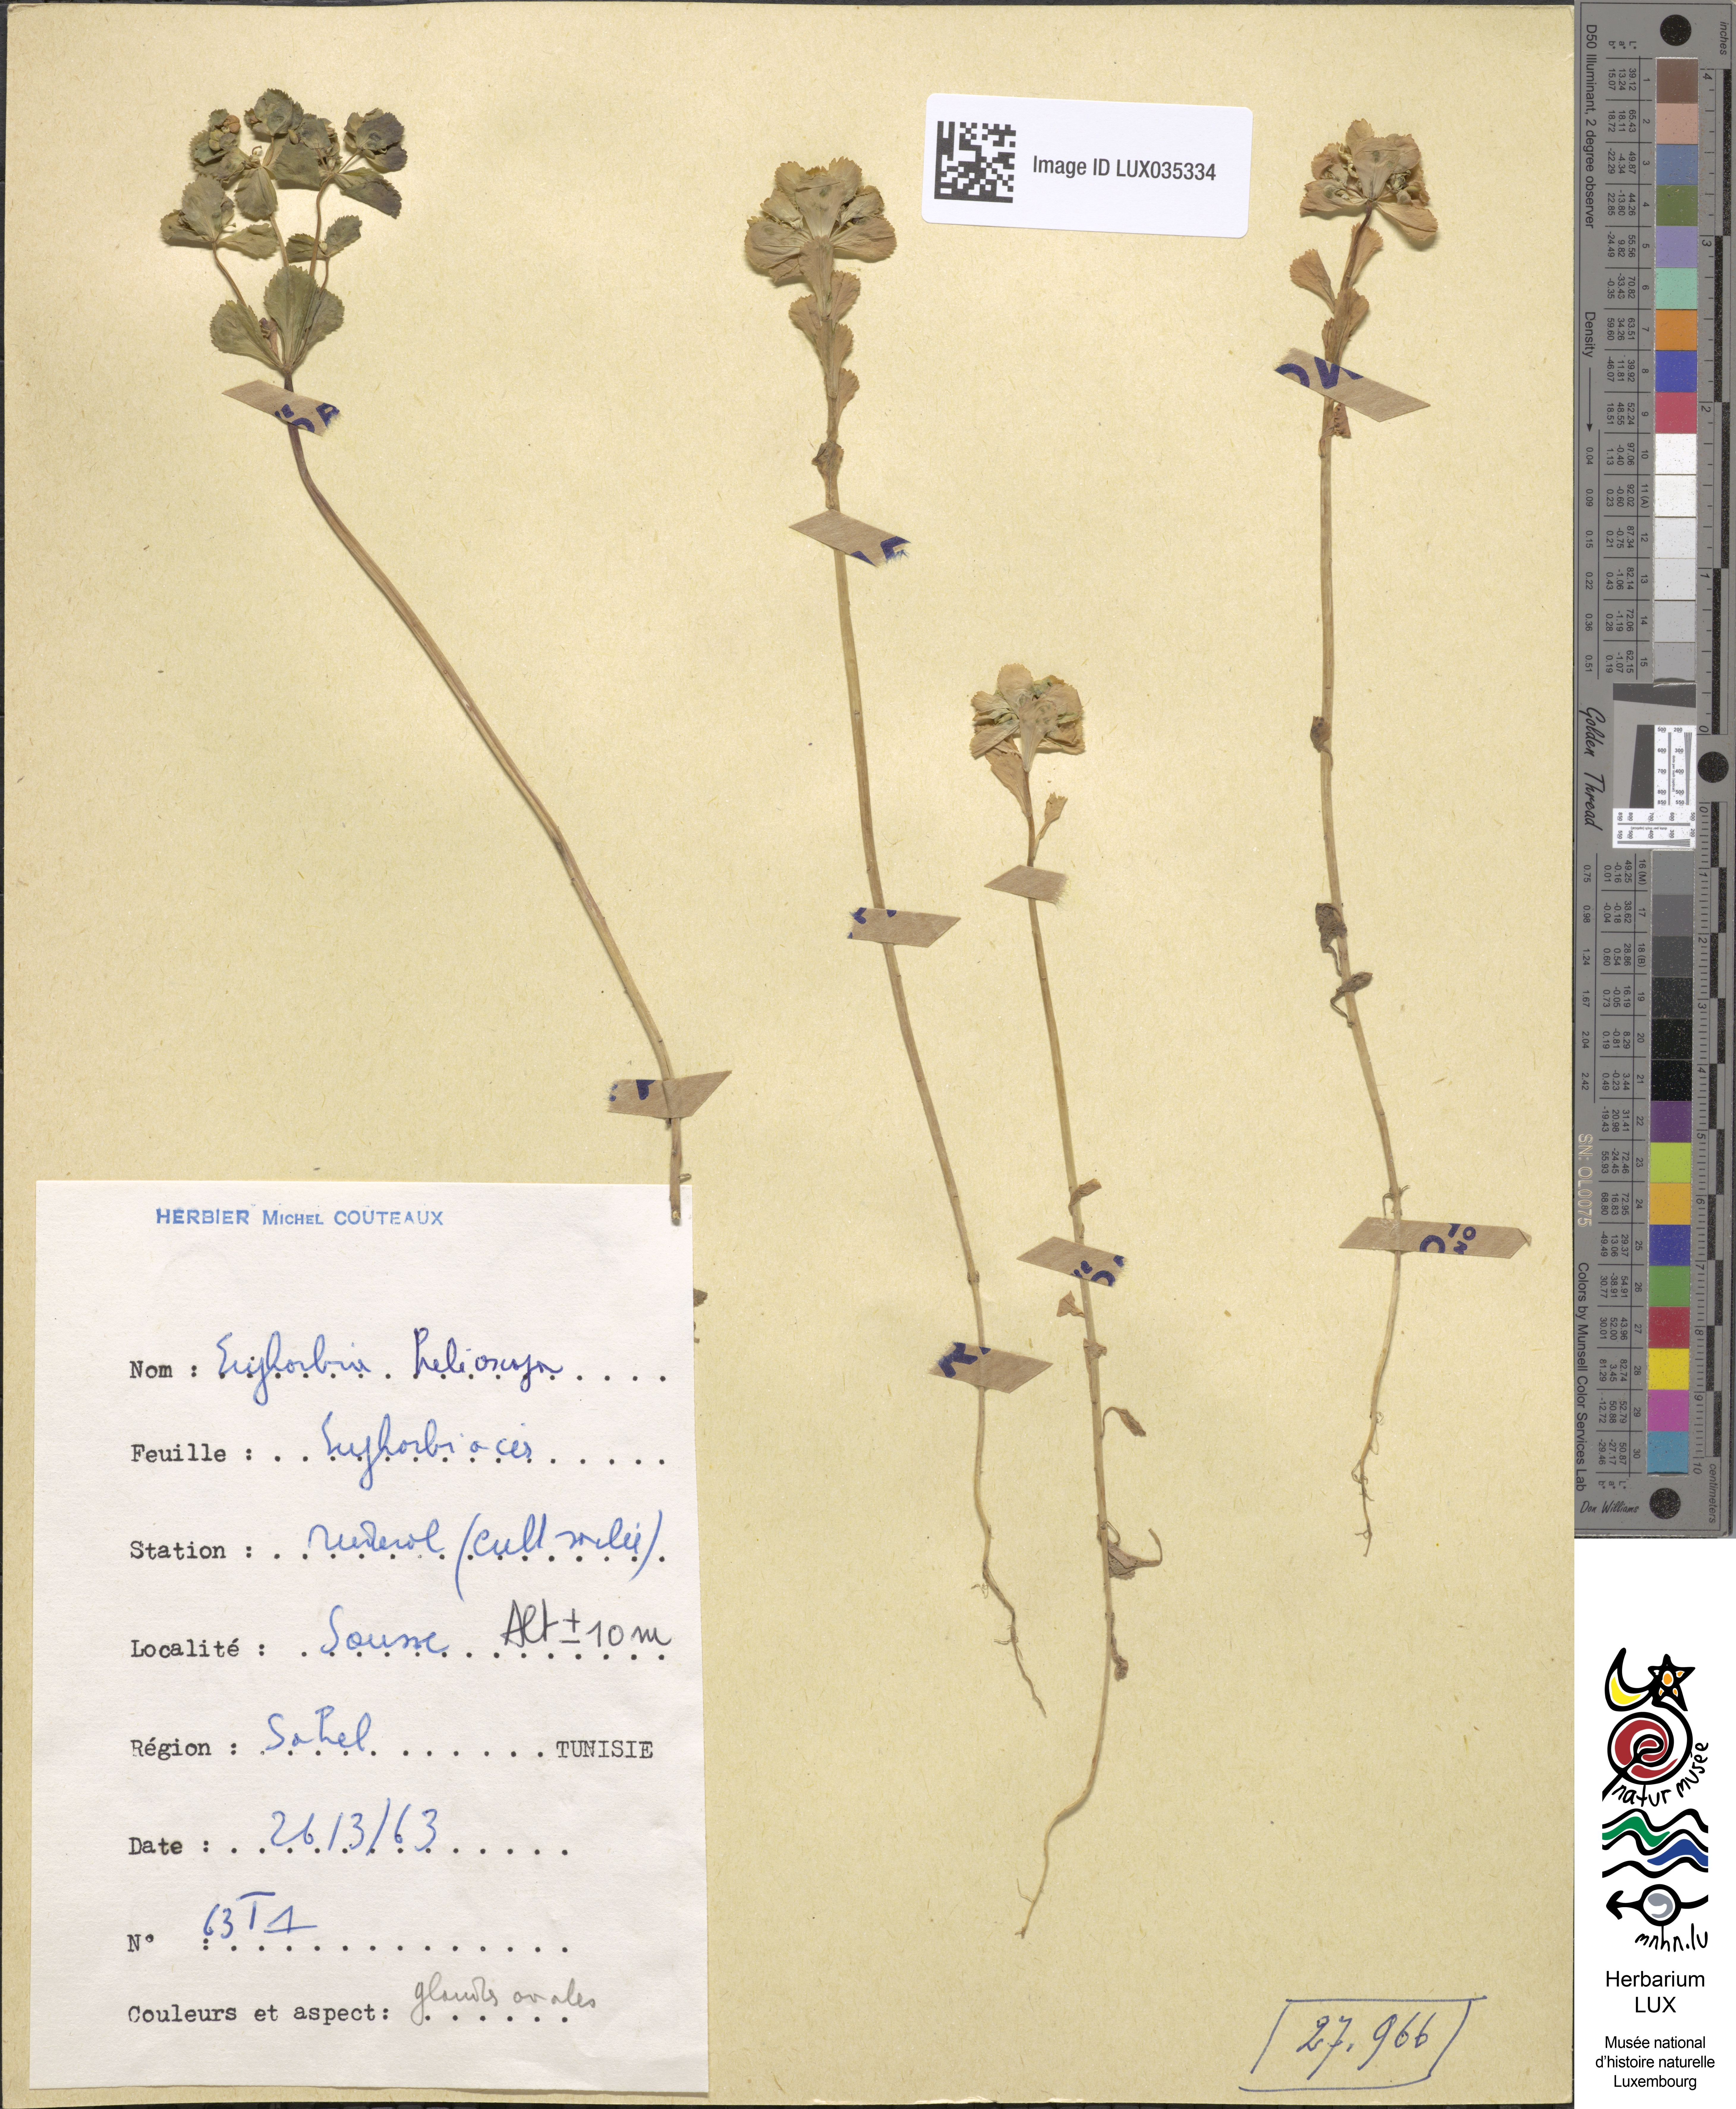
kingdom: Plantae
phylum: Tracheophyta
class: Magnoliopsida
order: Malpighiales
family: Euphorbiaceae
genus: Euphorbia
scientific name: Euphorbia helioscopia
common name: Sun spurge
